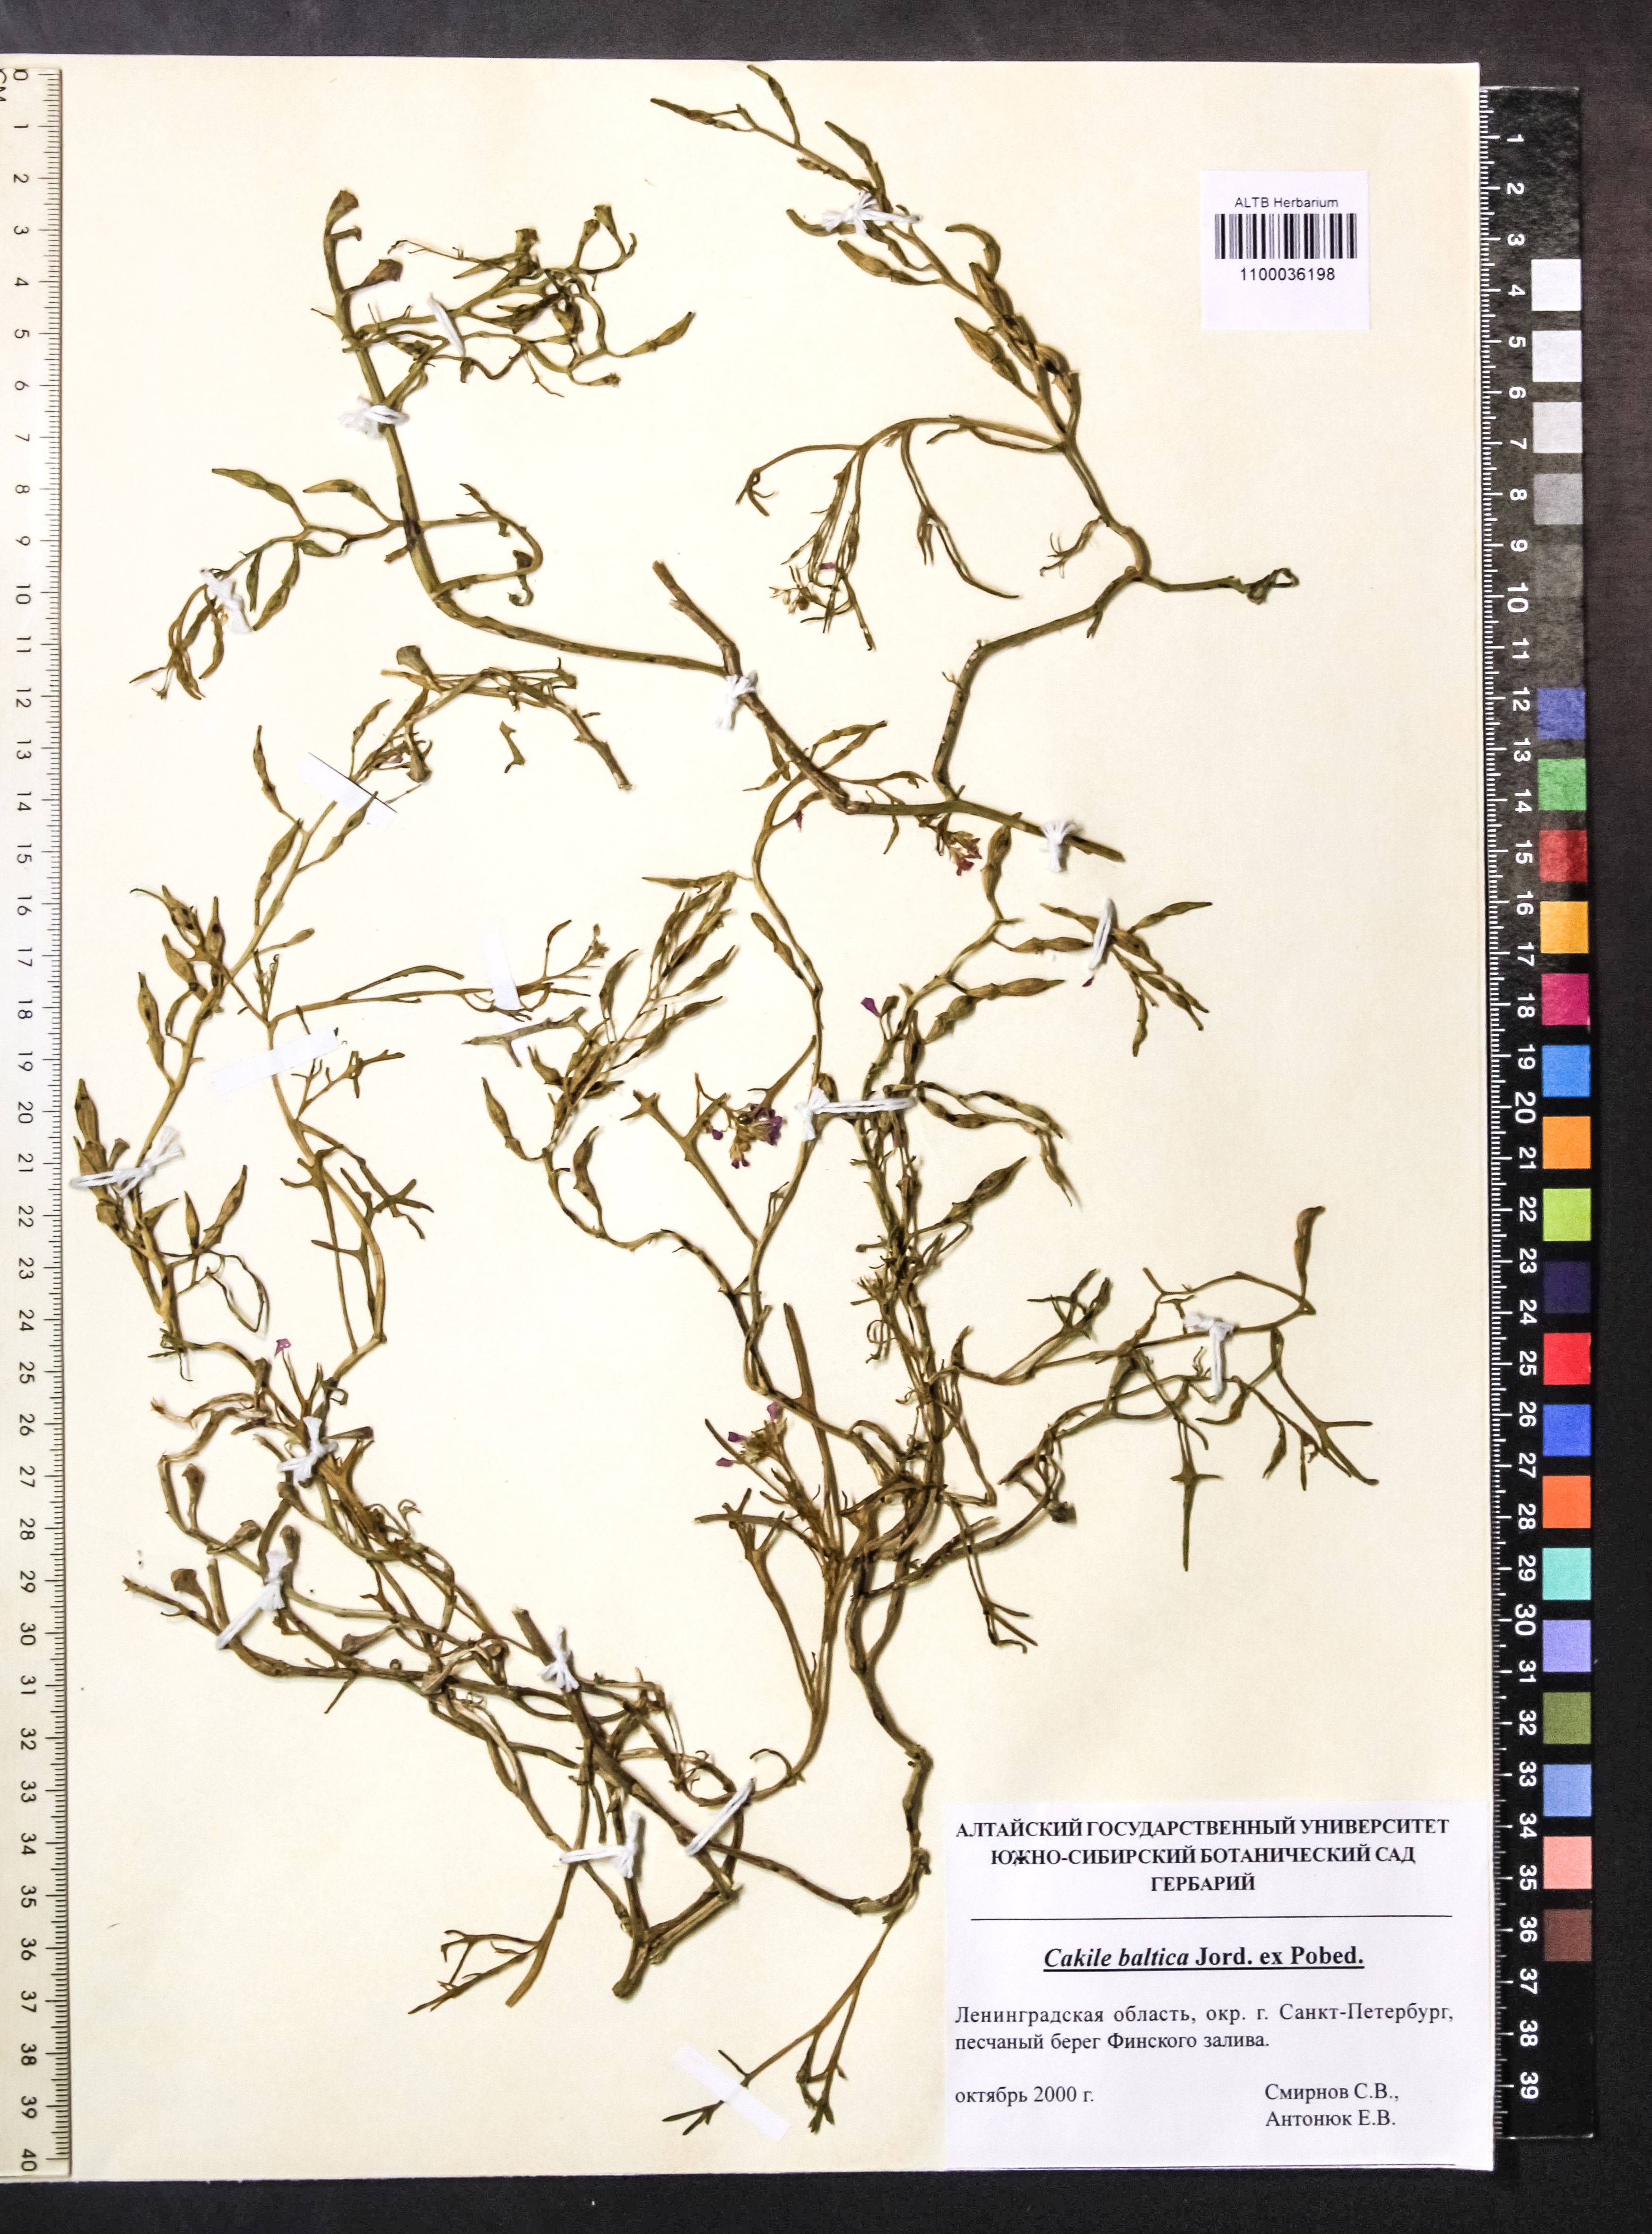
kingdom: Plantae
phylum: Tracheophyta
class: Magnoliopsida
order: Brassicales
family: Brassicaceae
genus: Cakile
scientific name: Cakile maritima
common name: Sea rocket
